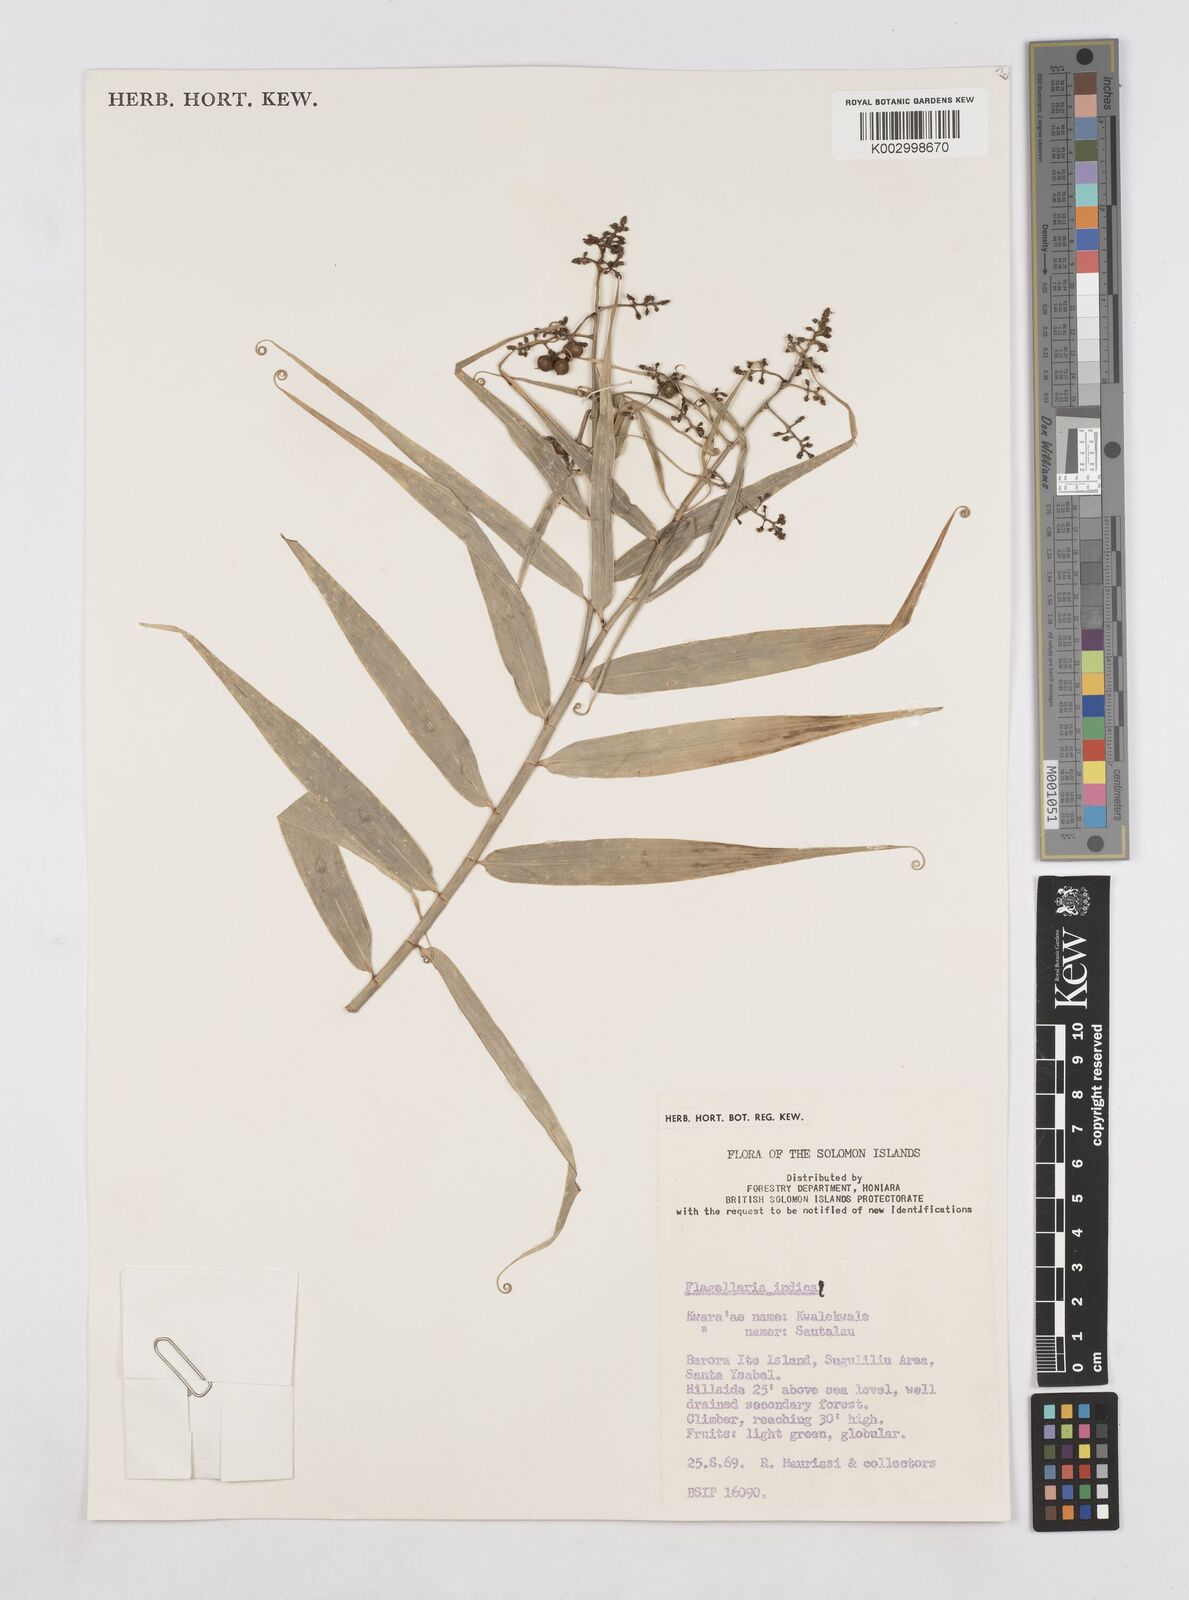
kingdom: Plantae
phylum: Tracheophyta
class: Liliopsida
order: Poales
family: Flagellariaceae
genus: Flagellaria
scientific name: Flagellaria indica
